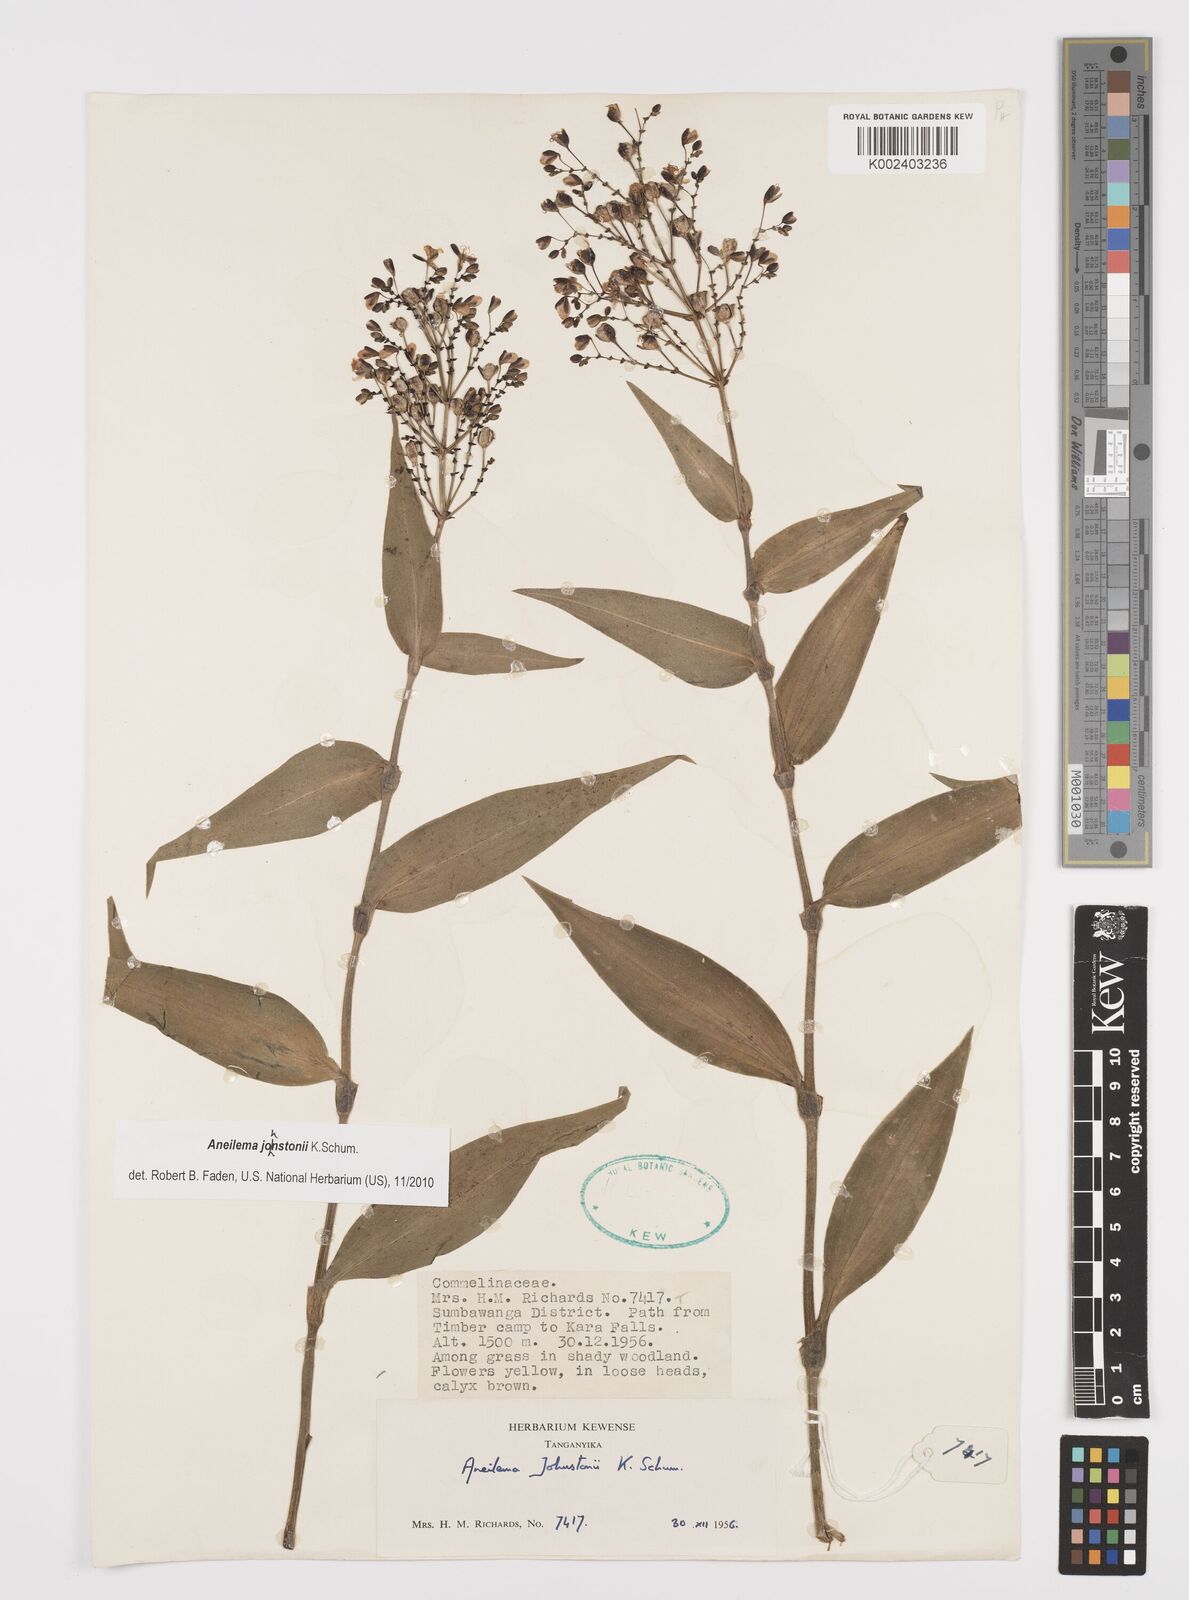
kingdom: Plantae
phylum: Tracheophyta
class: Liliopsida
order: Commelinales
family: Commelinaceae
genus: Aneilema
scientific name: Aneilema johnstonii
